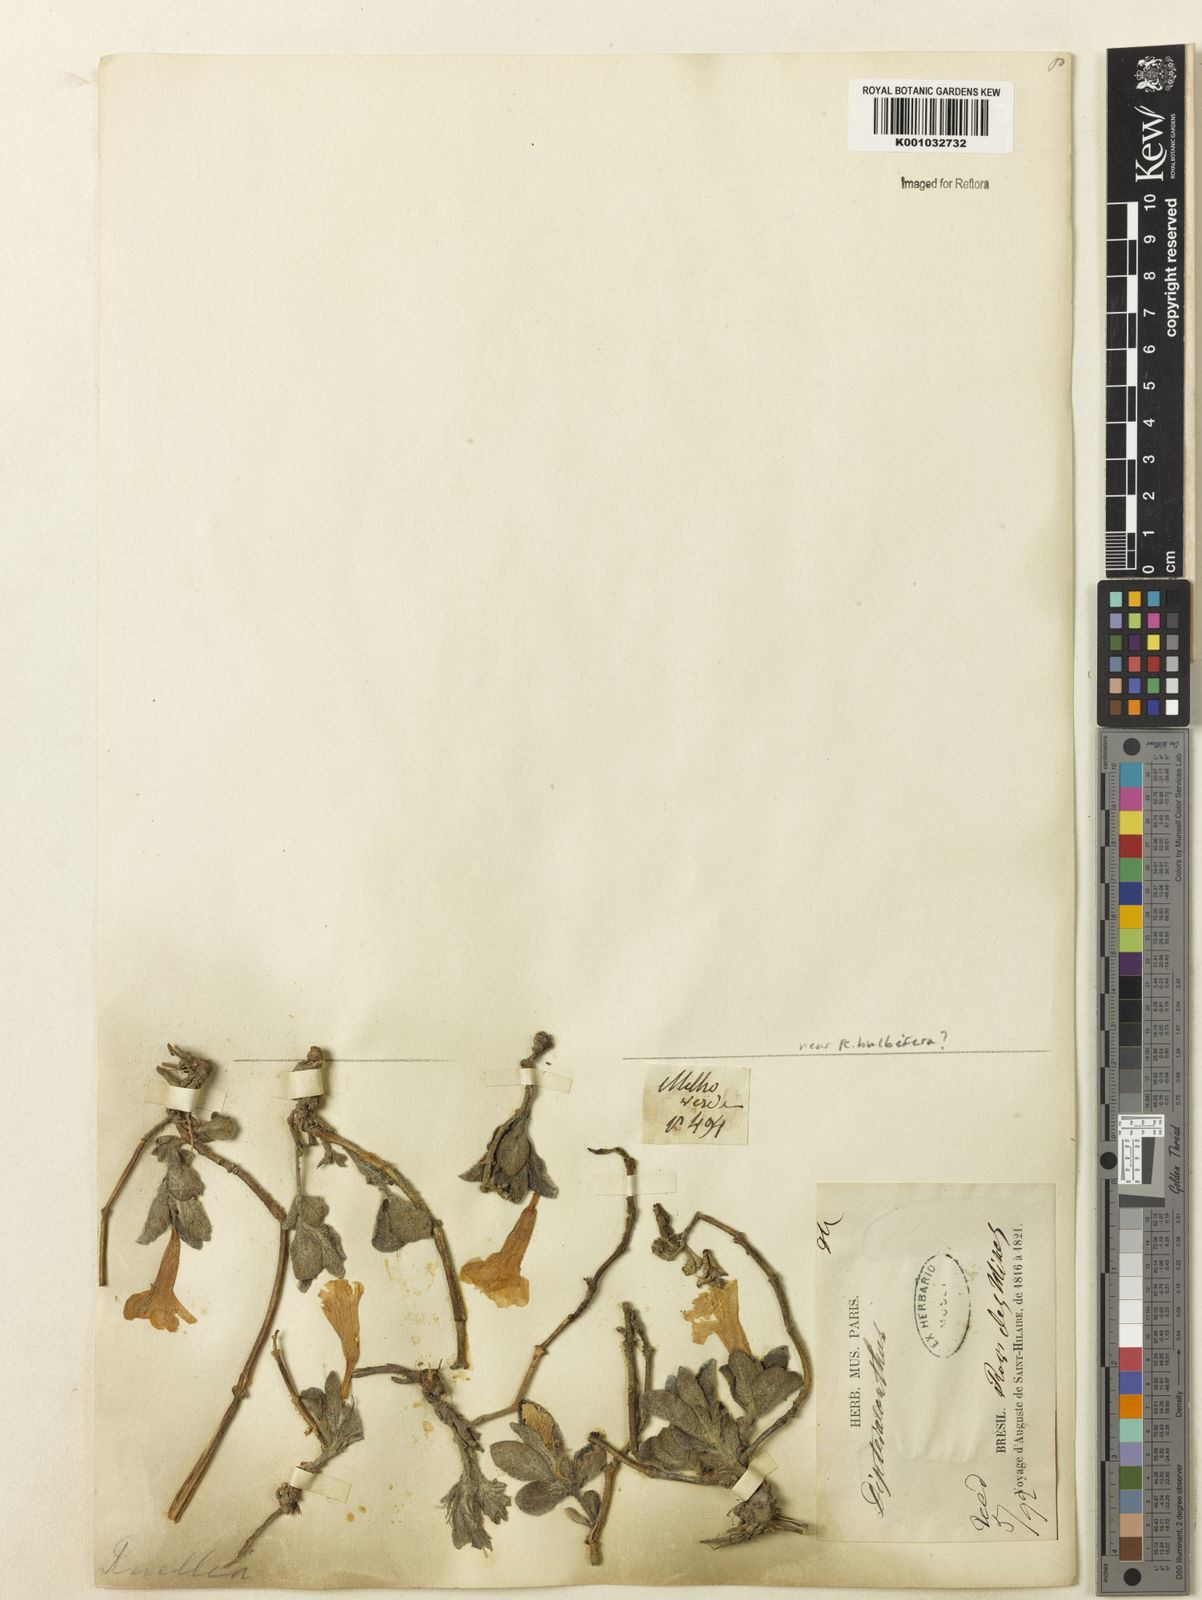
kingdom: Plantae
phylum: Tracheophyta
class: Magnoliopsida
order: Lamiales
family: Acanthaceae
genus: Ruellia
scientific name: Ruellia
